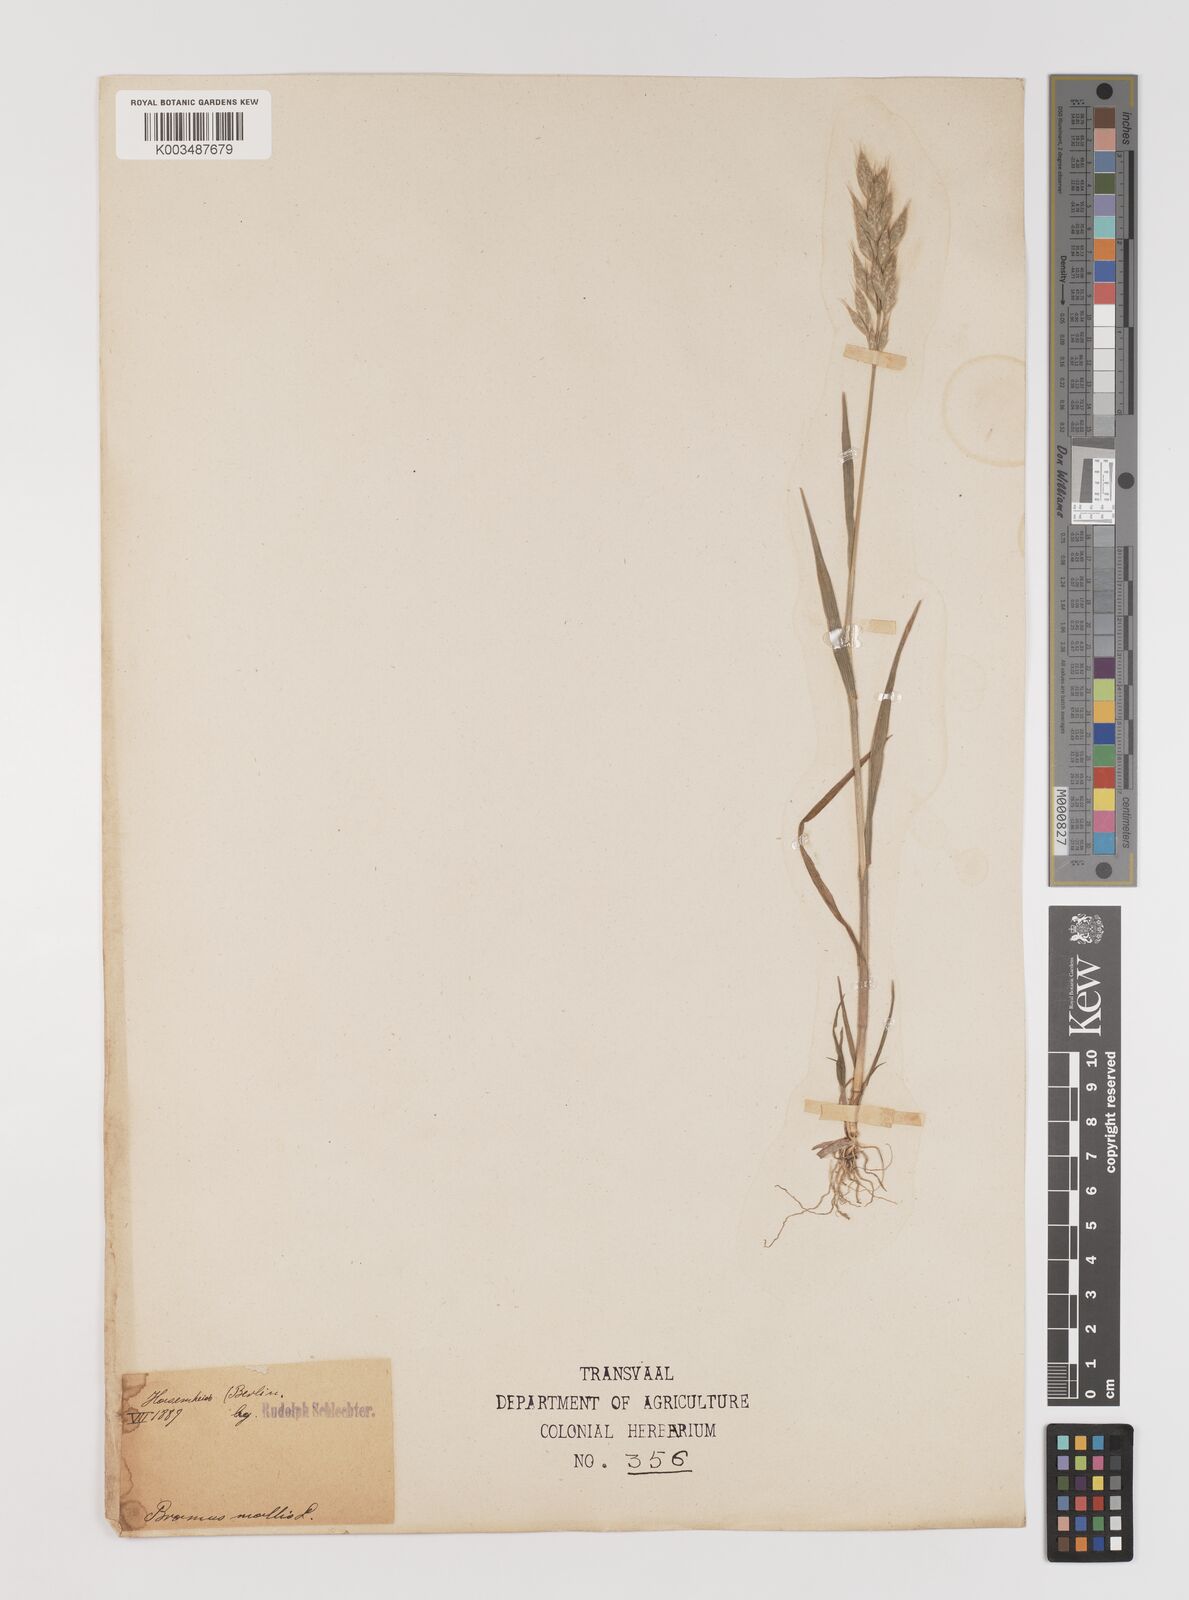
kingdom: Plantae
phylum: Tracheophyta
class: Liliopsida
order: Poales
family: Poaceae
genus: Bromus
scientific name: Bromus hordeaceus
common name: Soft brome
